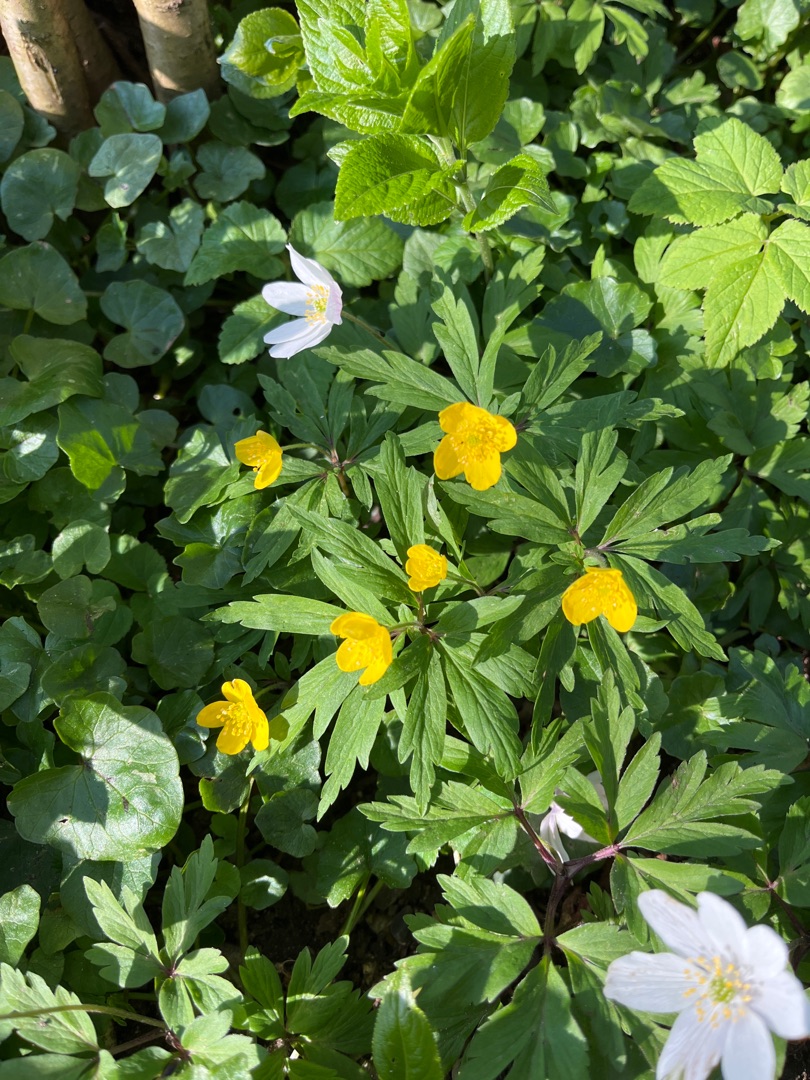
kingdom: Plantae
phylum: Tracheophyta
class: Magnoliopsida
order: Ranunculales
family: Ranunculaceae
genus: Anemone
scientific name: Anemone ranunculoides
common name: Gul anemone
